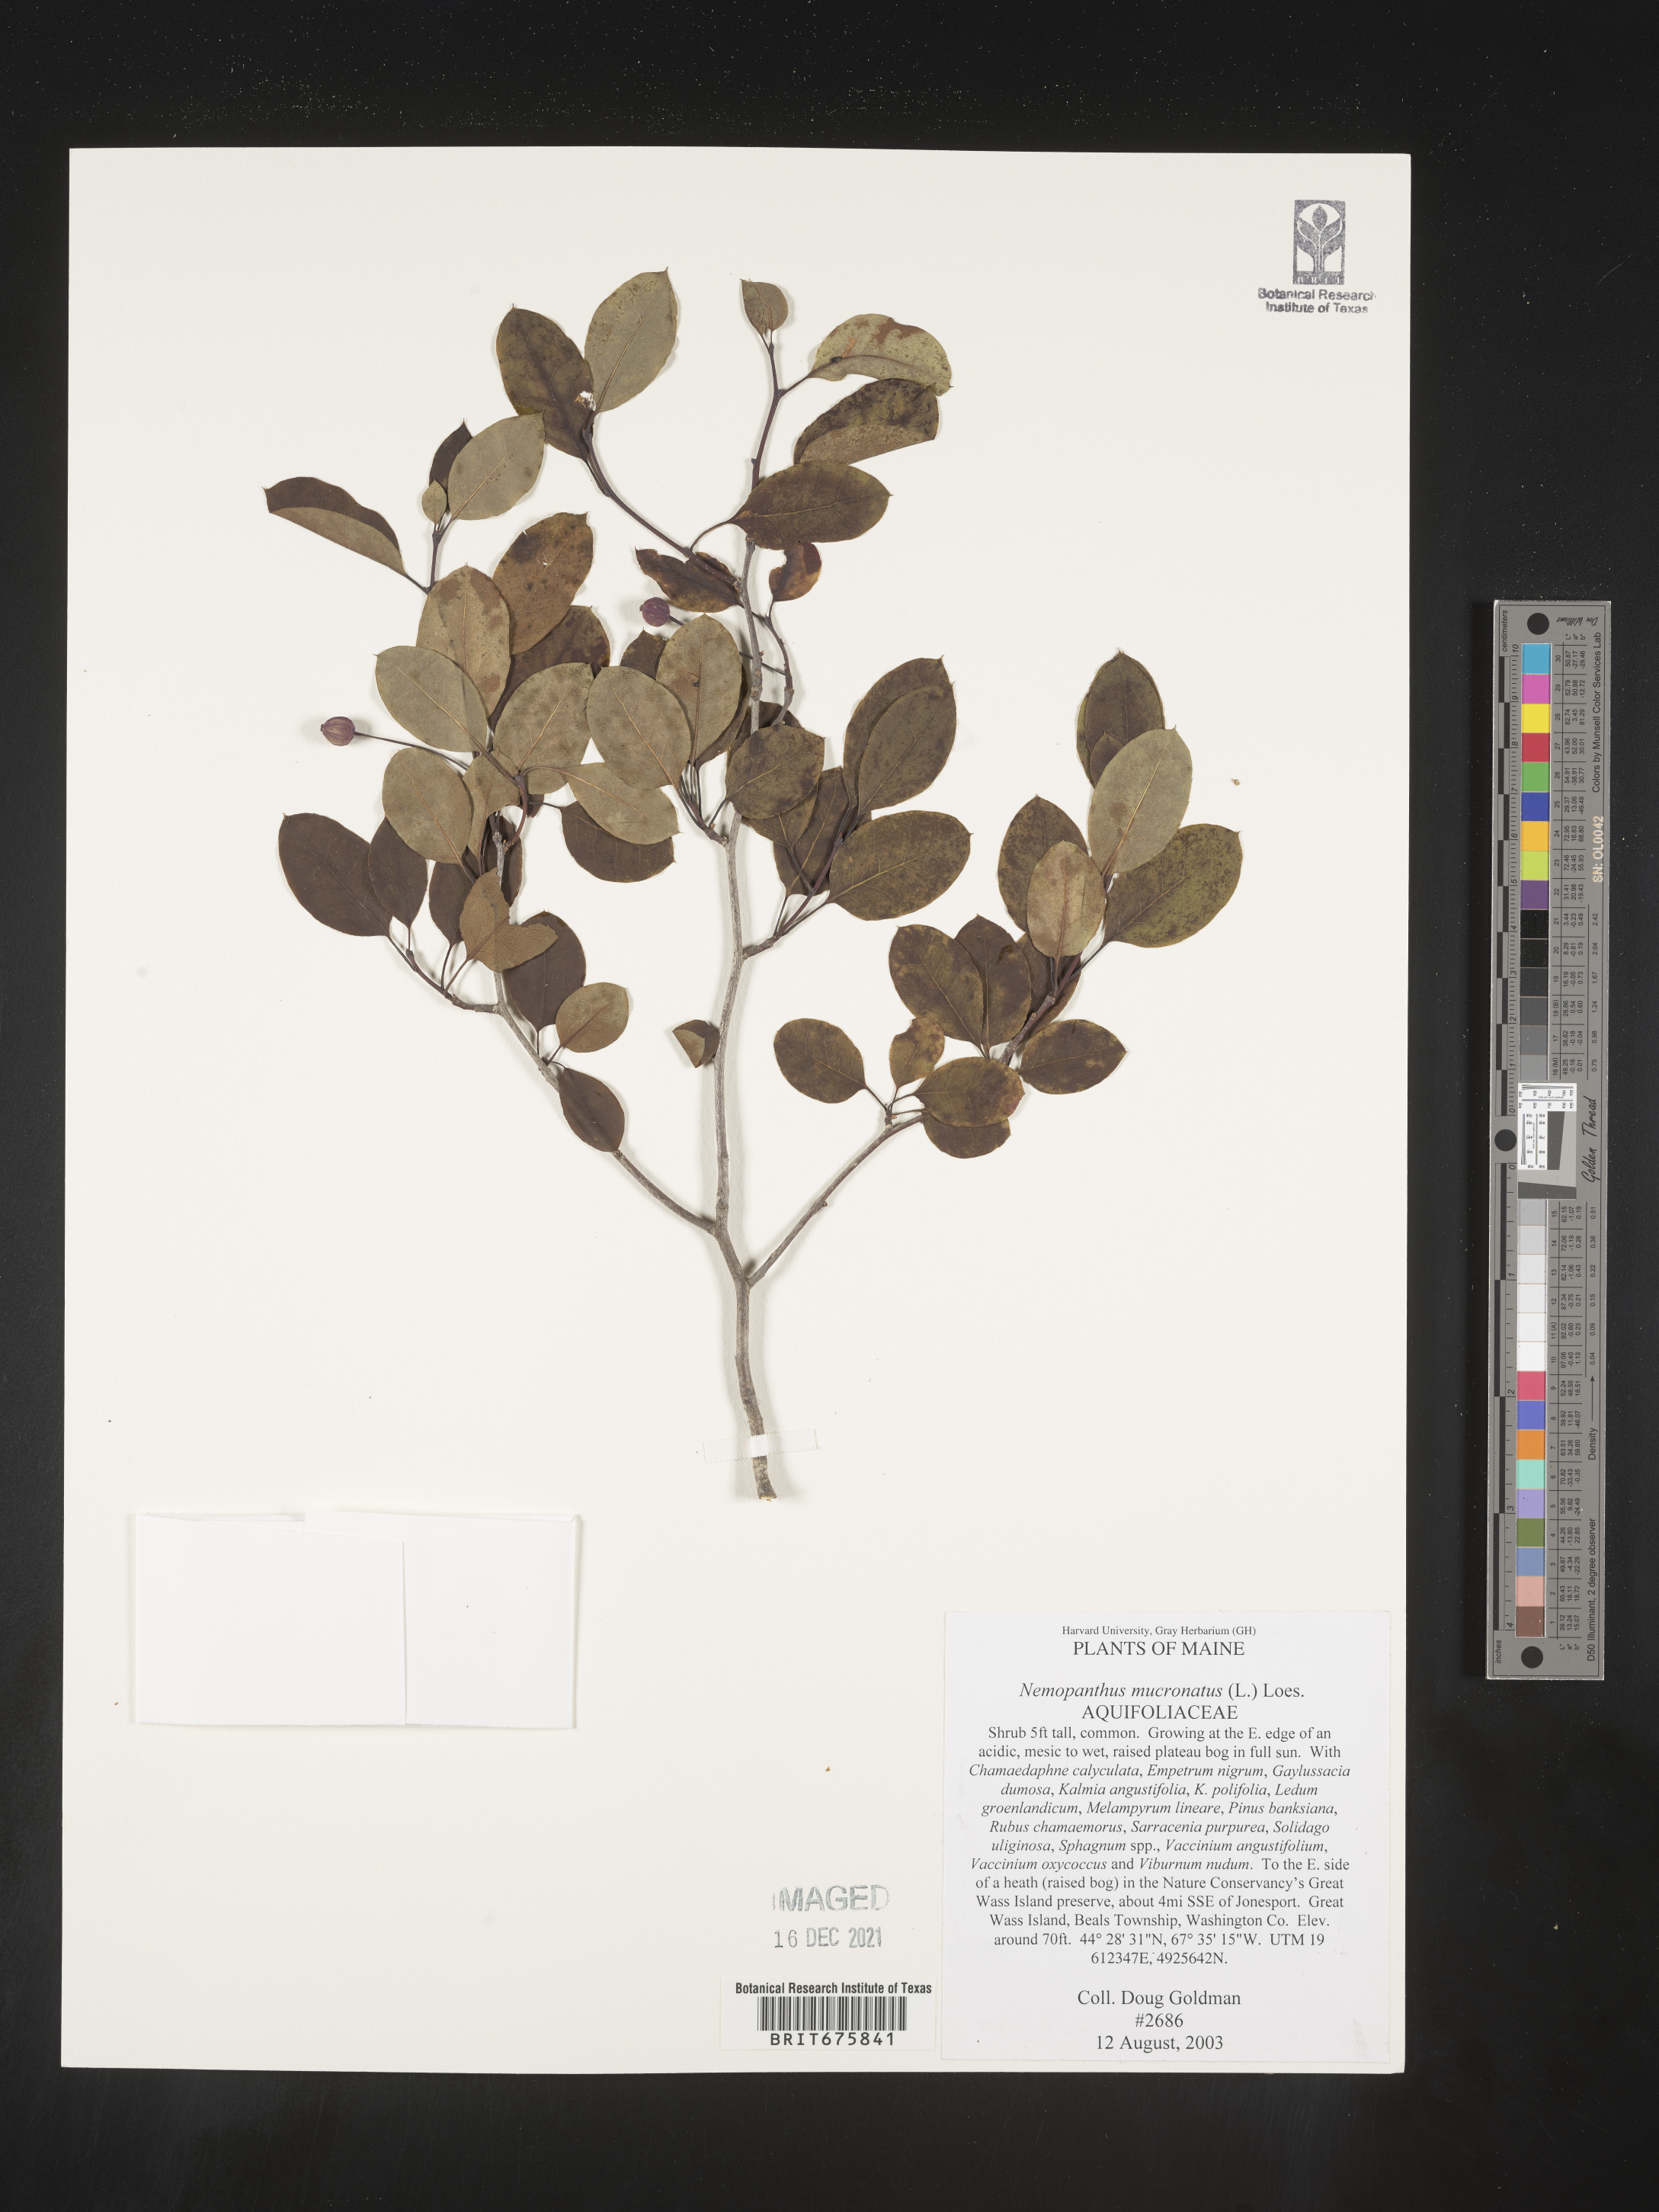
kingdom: Plantae
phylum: Tracheophyta
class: Magnoliopsida
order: Aquifoliales
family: Aquifoliaceae
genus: Ilex
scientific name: Ilex mucronata
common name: Catberry
